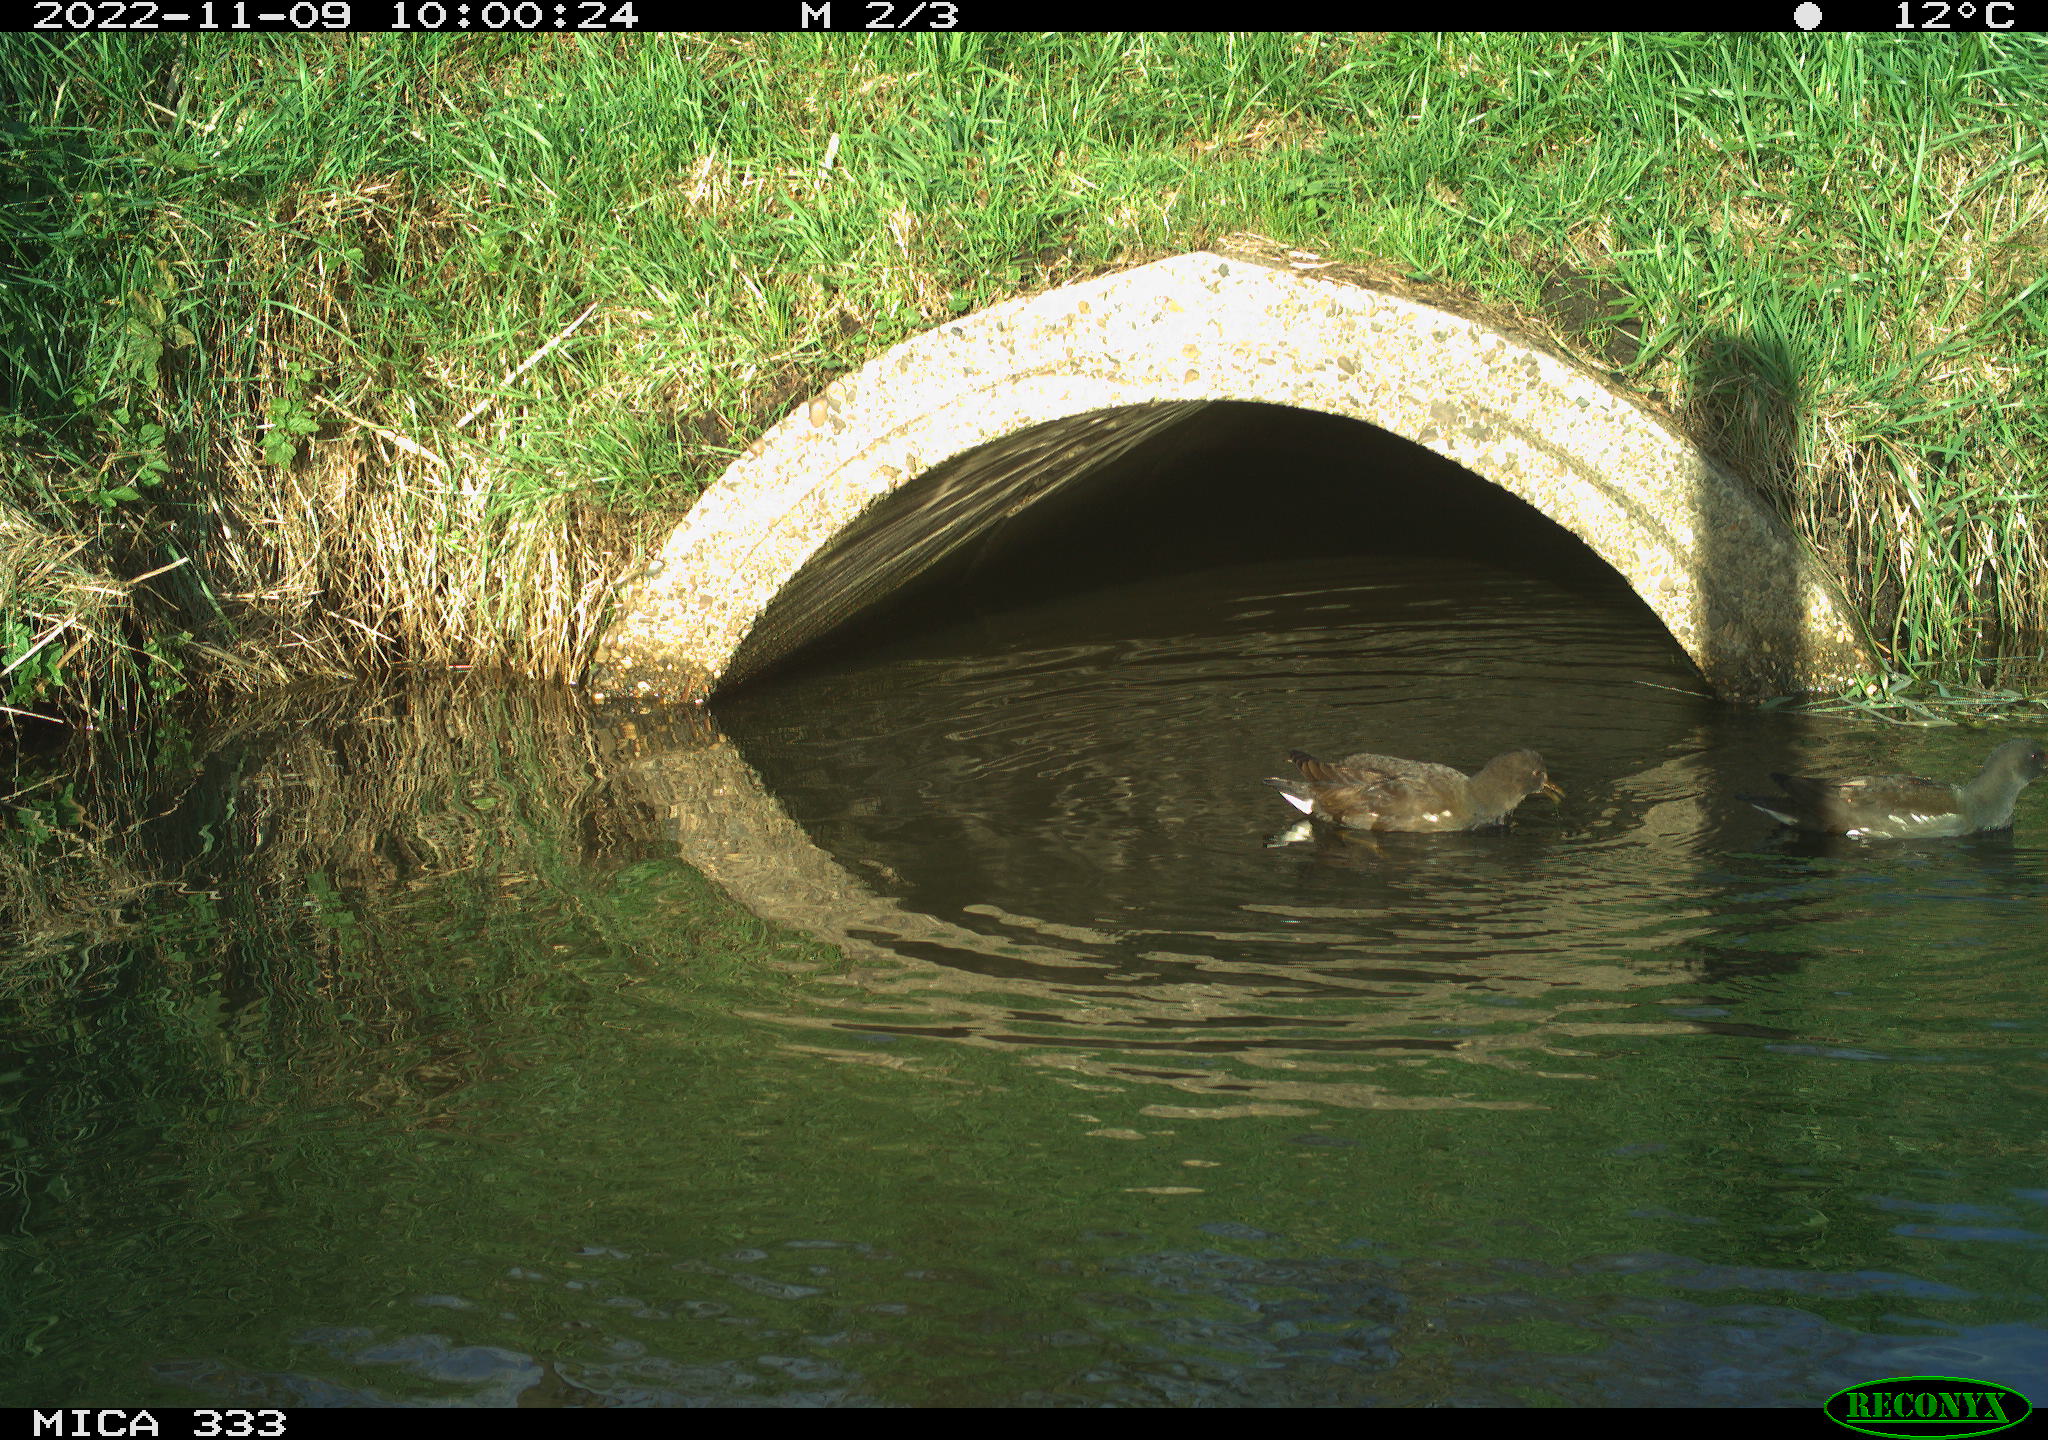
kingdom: Animalia
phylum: Chordata
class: Aves
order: Gruiformes
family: Rallidae
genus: Gallinula
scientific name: Gallinula chloropus
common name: Common moorhen
